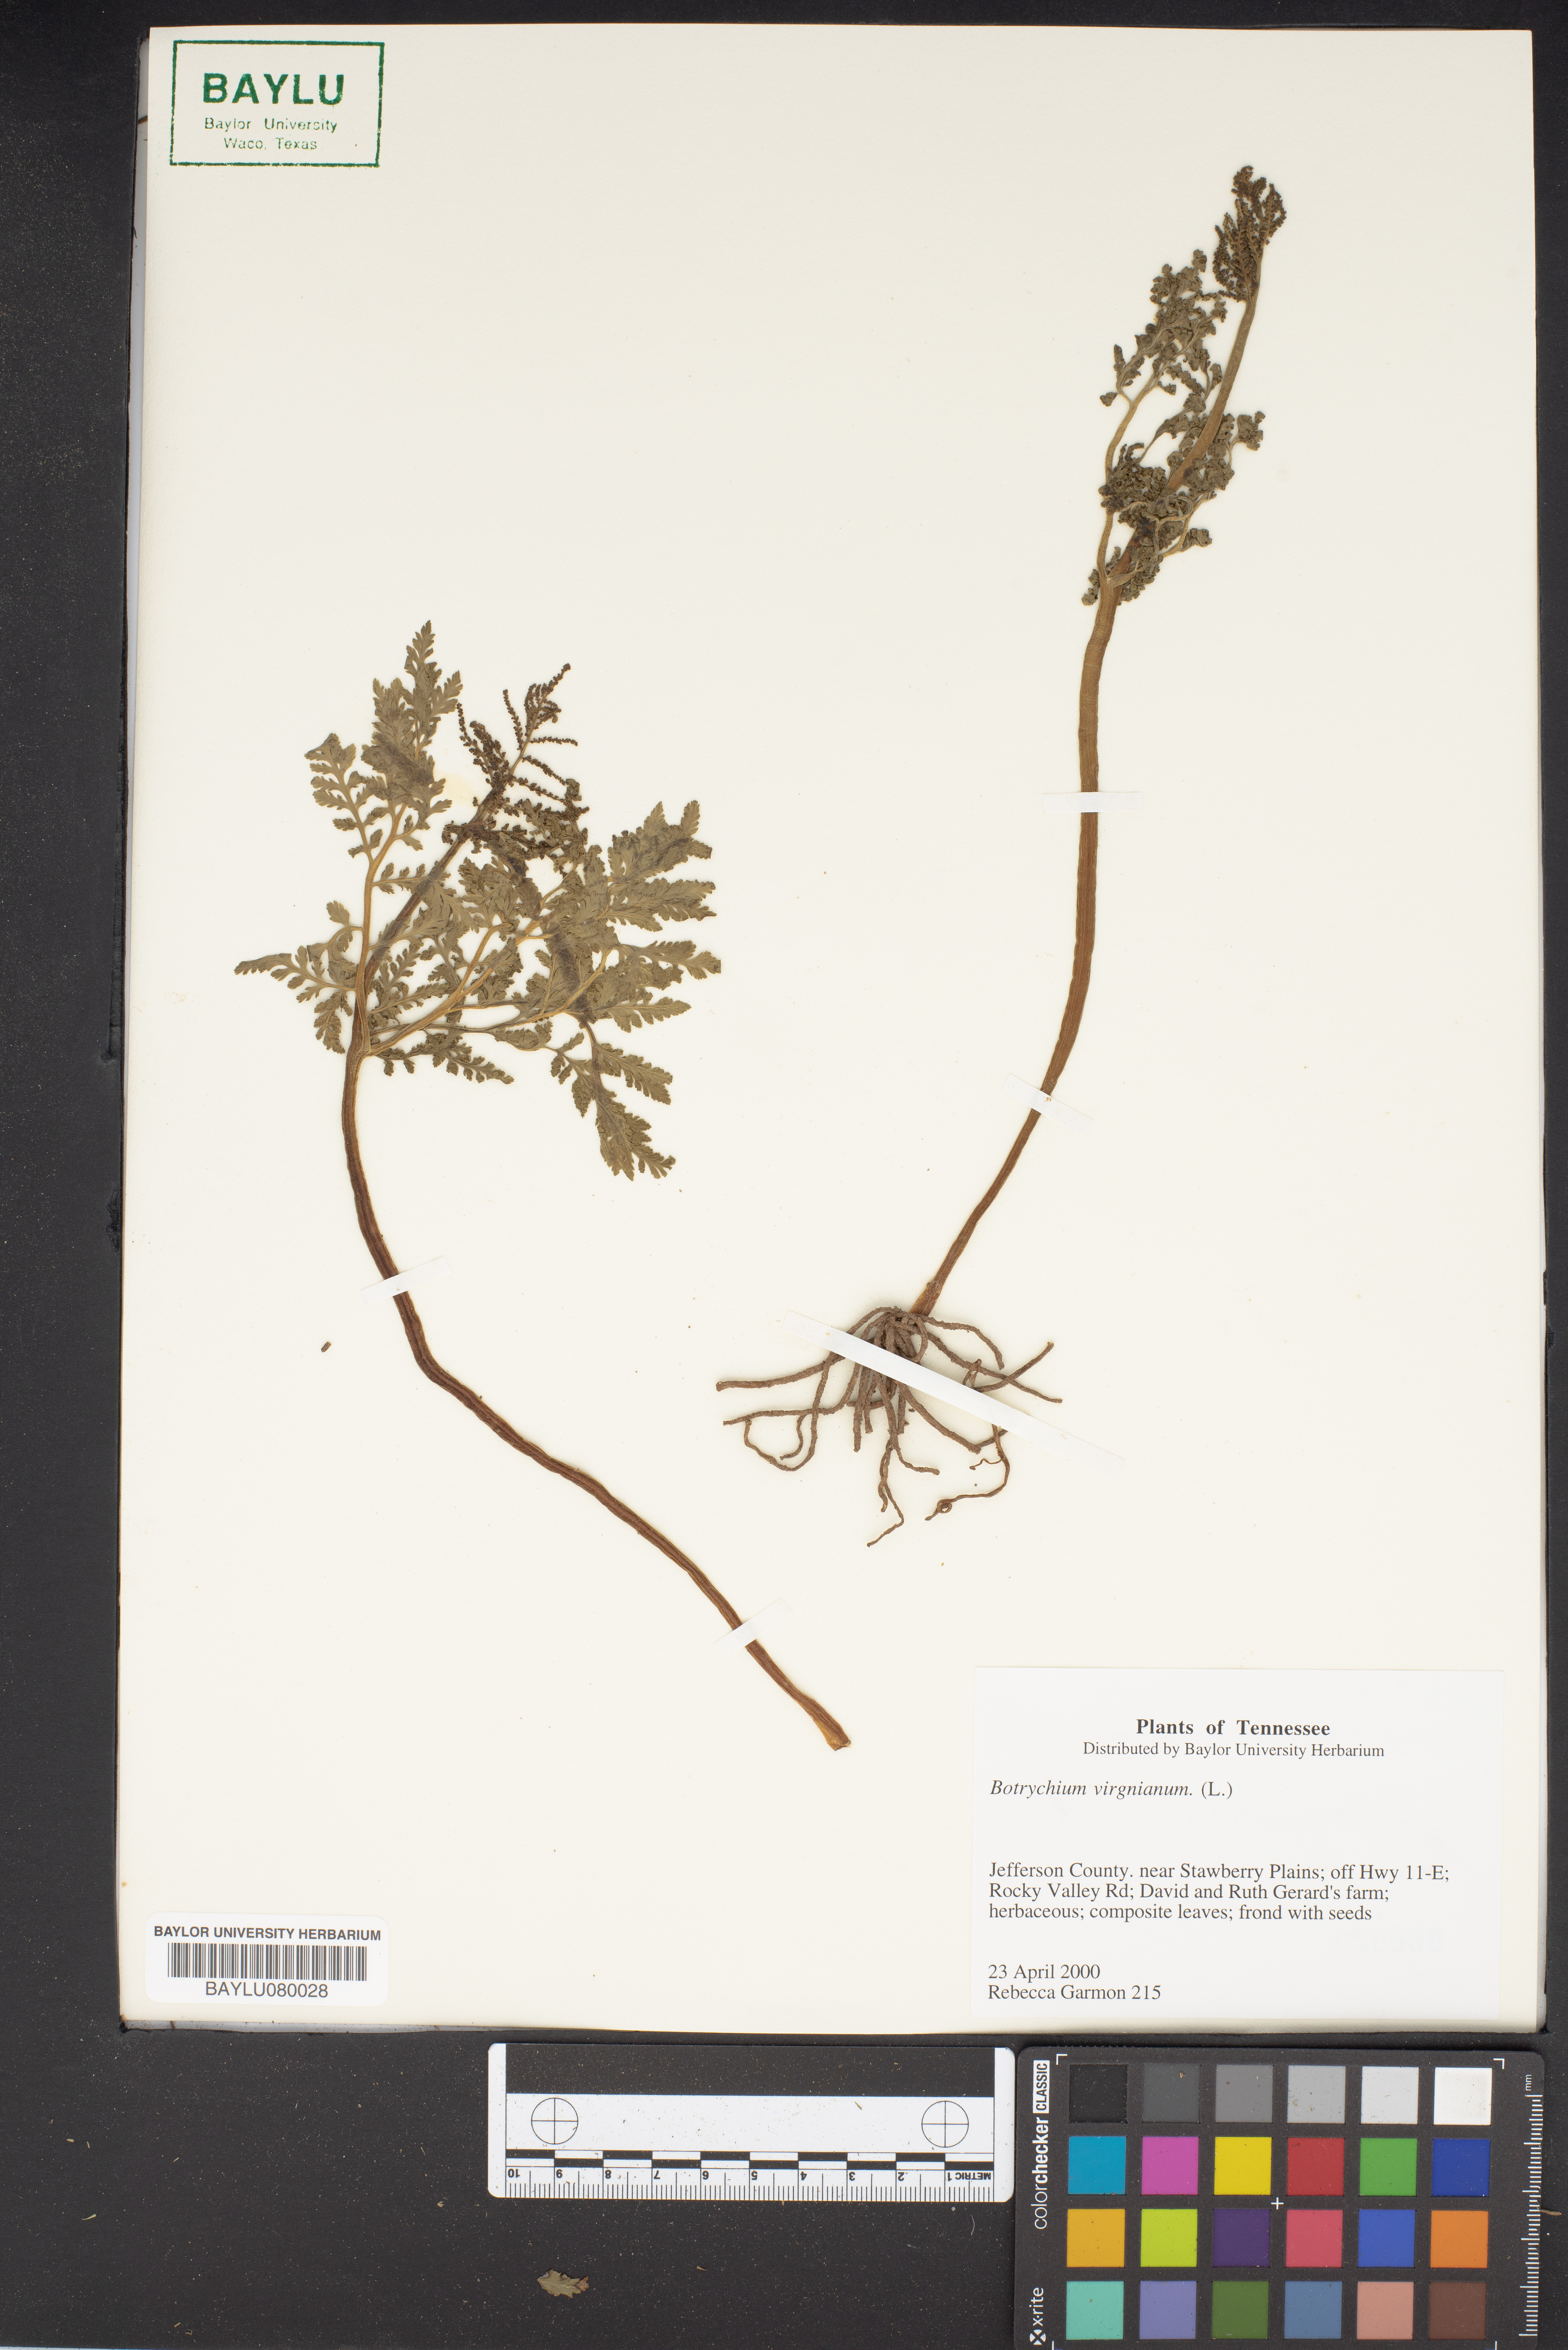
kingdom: Plantae
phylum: Tracheophyta
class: Polypodiopsida
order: Ophioglossales
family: Ophioglossaceae
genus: Botrypus
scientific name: Botrypus virginianus
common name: Common grapefern
